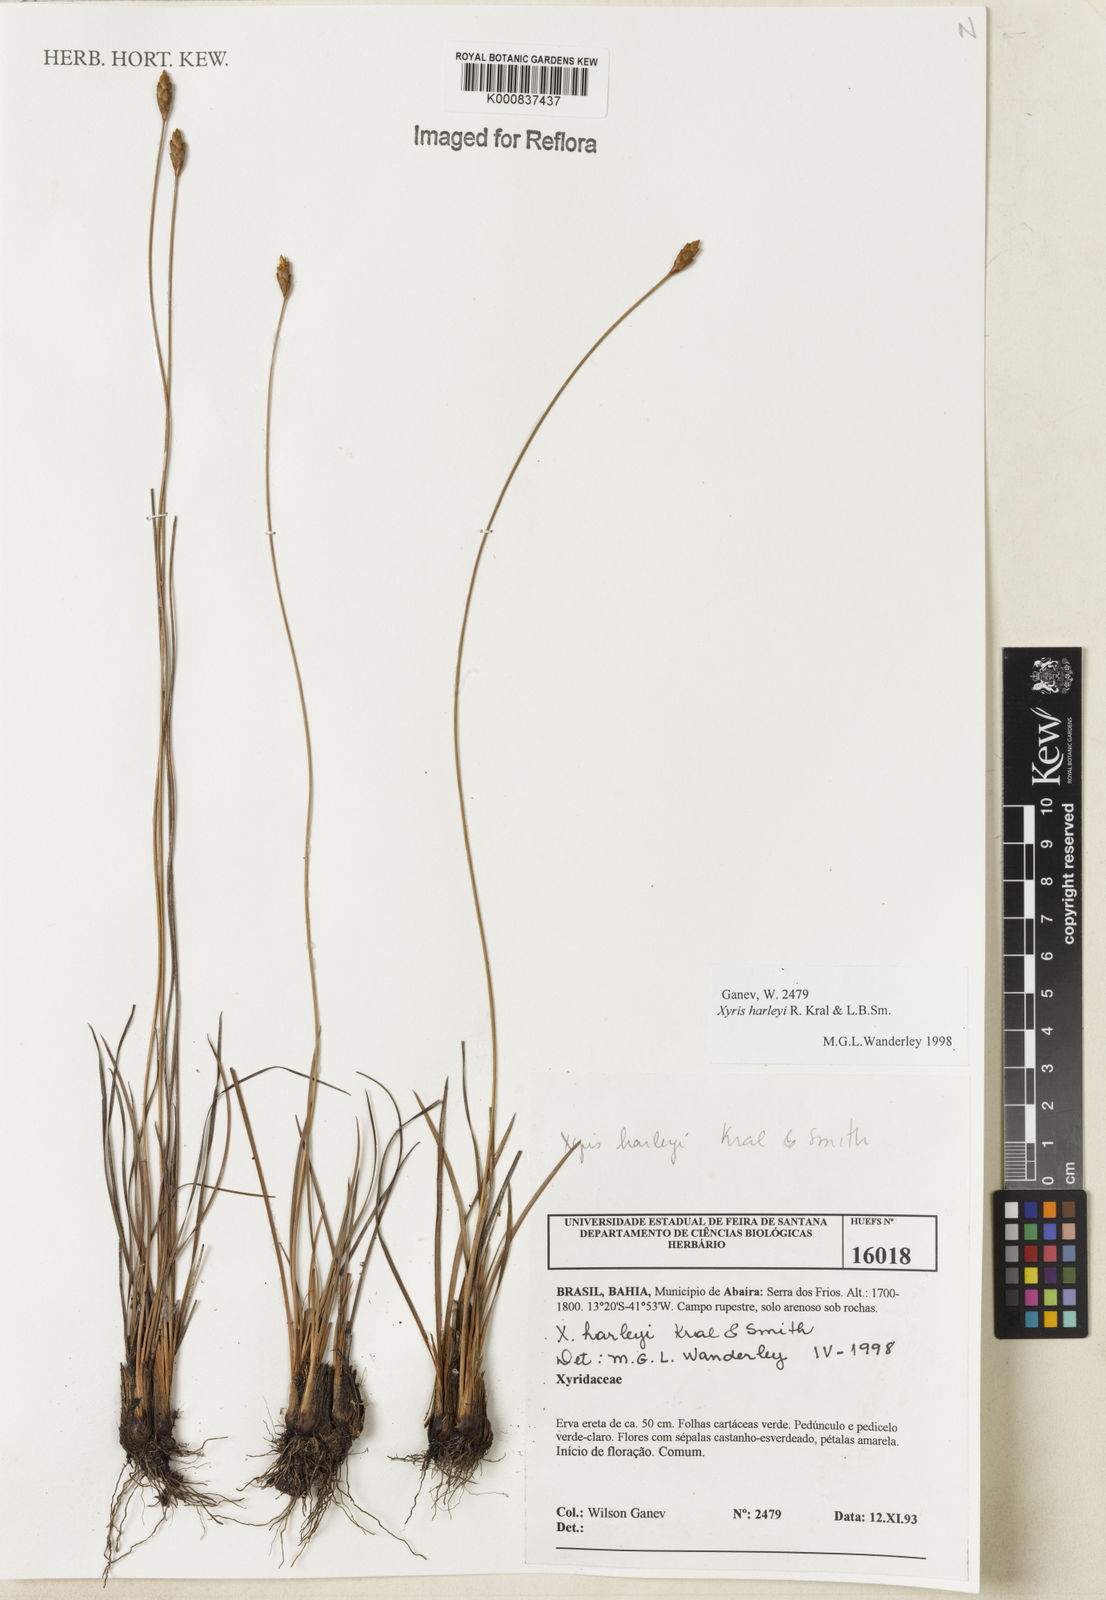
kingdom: Plantae
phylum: Tracheophyta
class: Liliopsida
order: Poales
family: Xyridaceae
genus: Xyris
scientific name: Xyris harleyi
